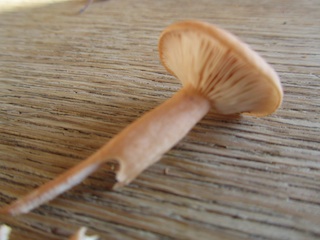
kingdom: Fungi
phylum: Basidiomycota
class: Agaricomycetes
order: Russulales
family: Russulaceae
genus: Lactarius
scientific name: Lactarius tabidus
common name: rynket mælkehat
